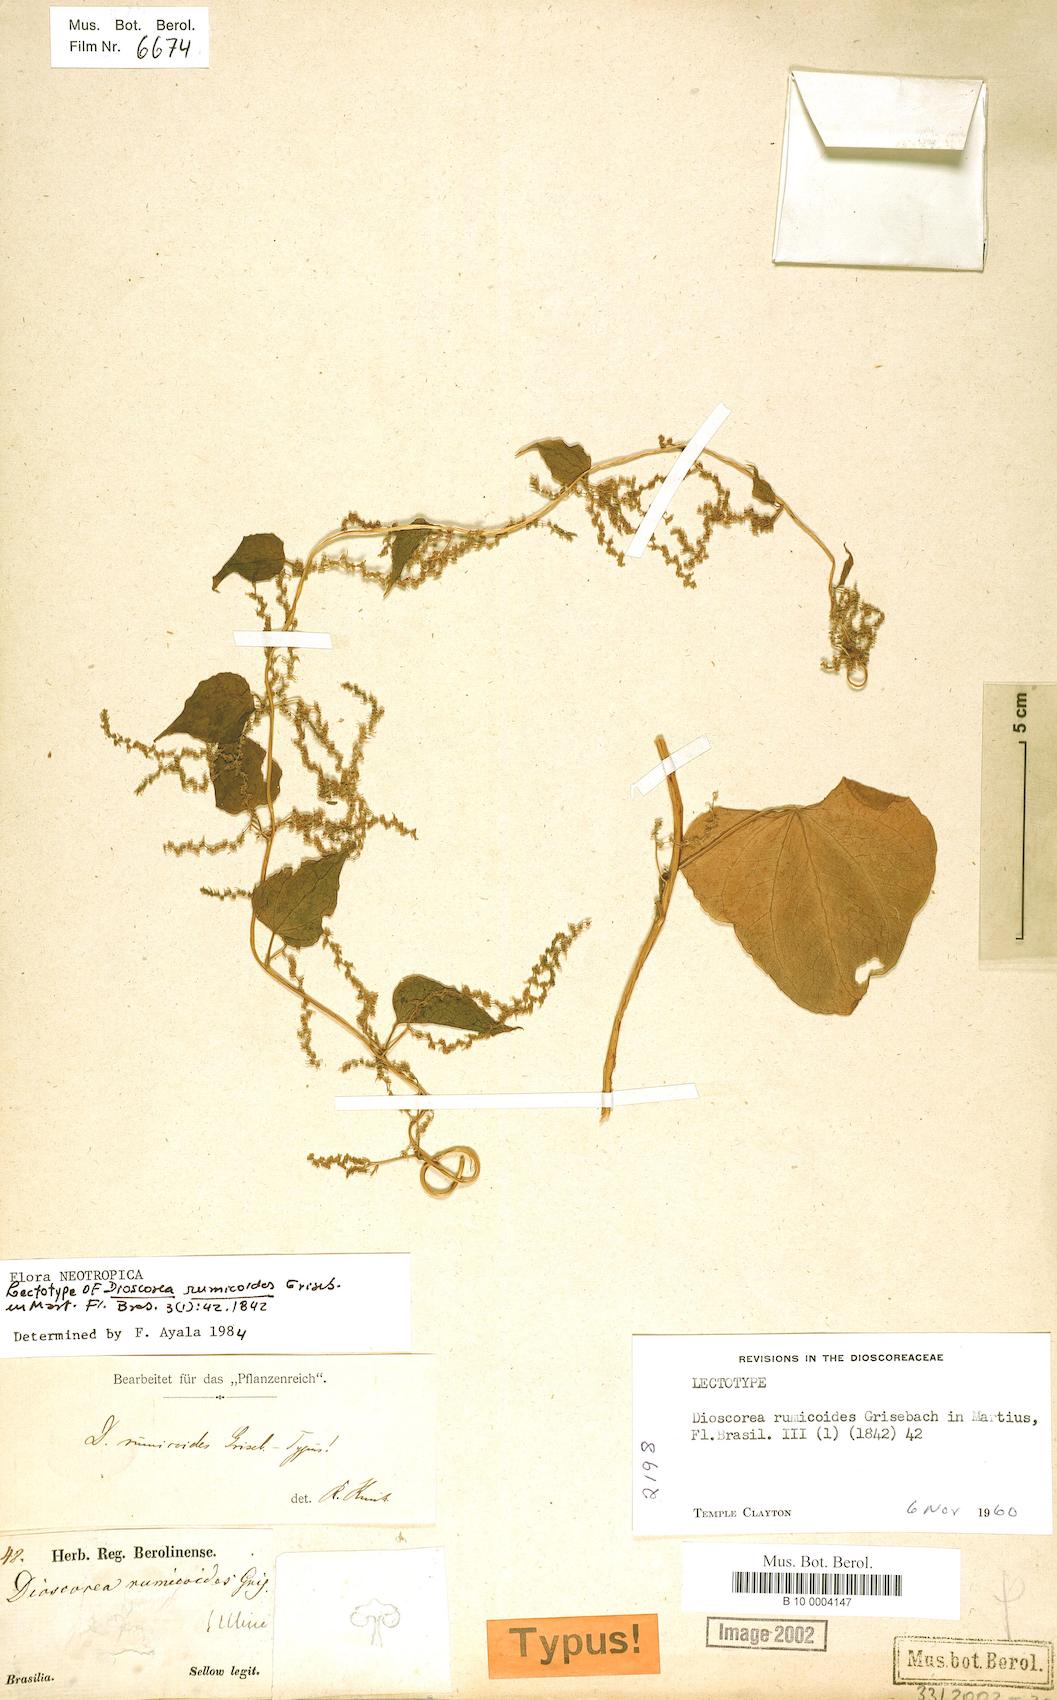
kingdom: Plantae
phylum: Tracheophyta
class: Liliopsida
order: Dioscoreales
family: Dioscoreaceae
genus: Dioscorea
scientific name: Dioscorea rumicoides
